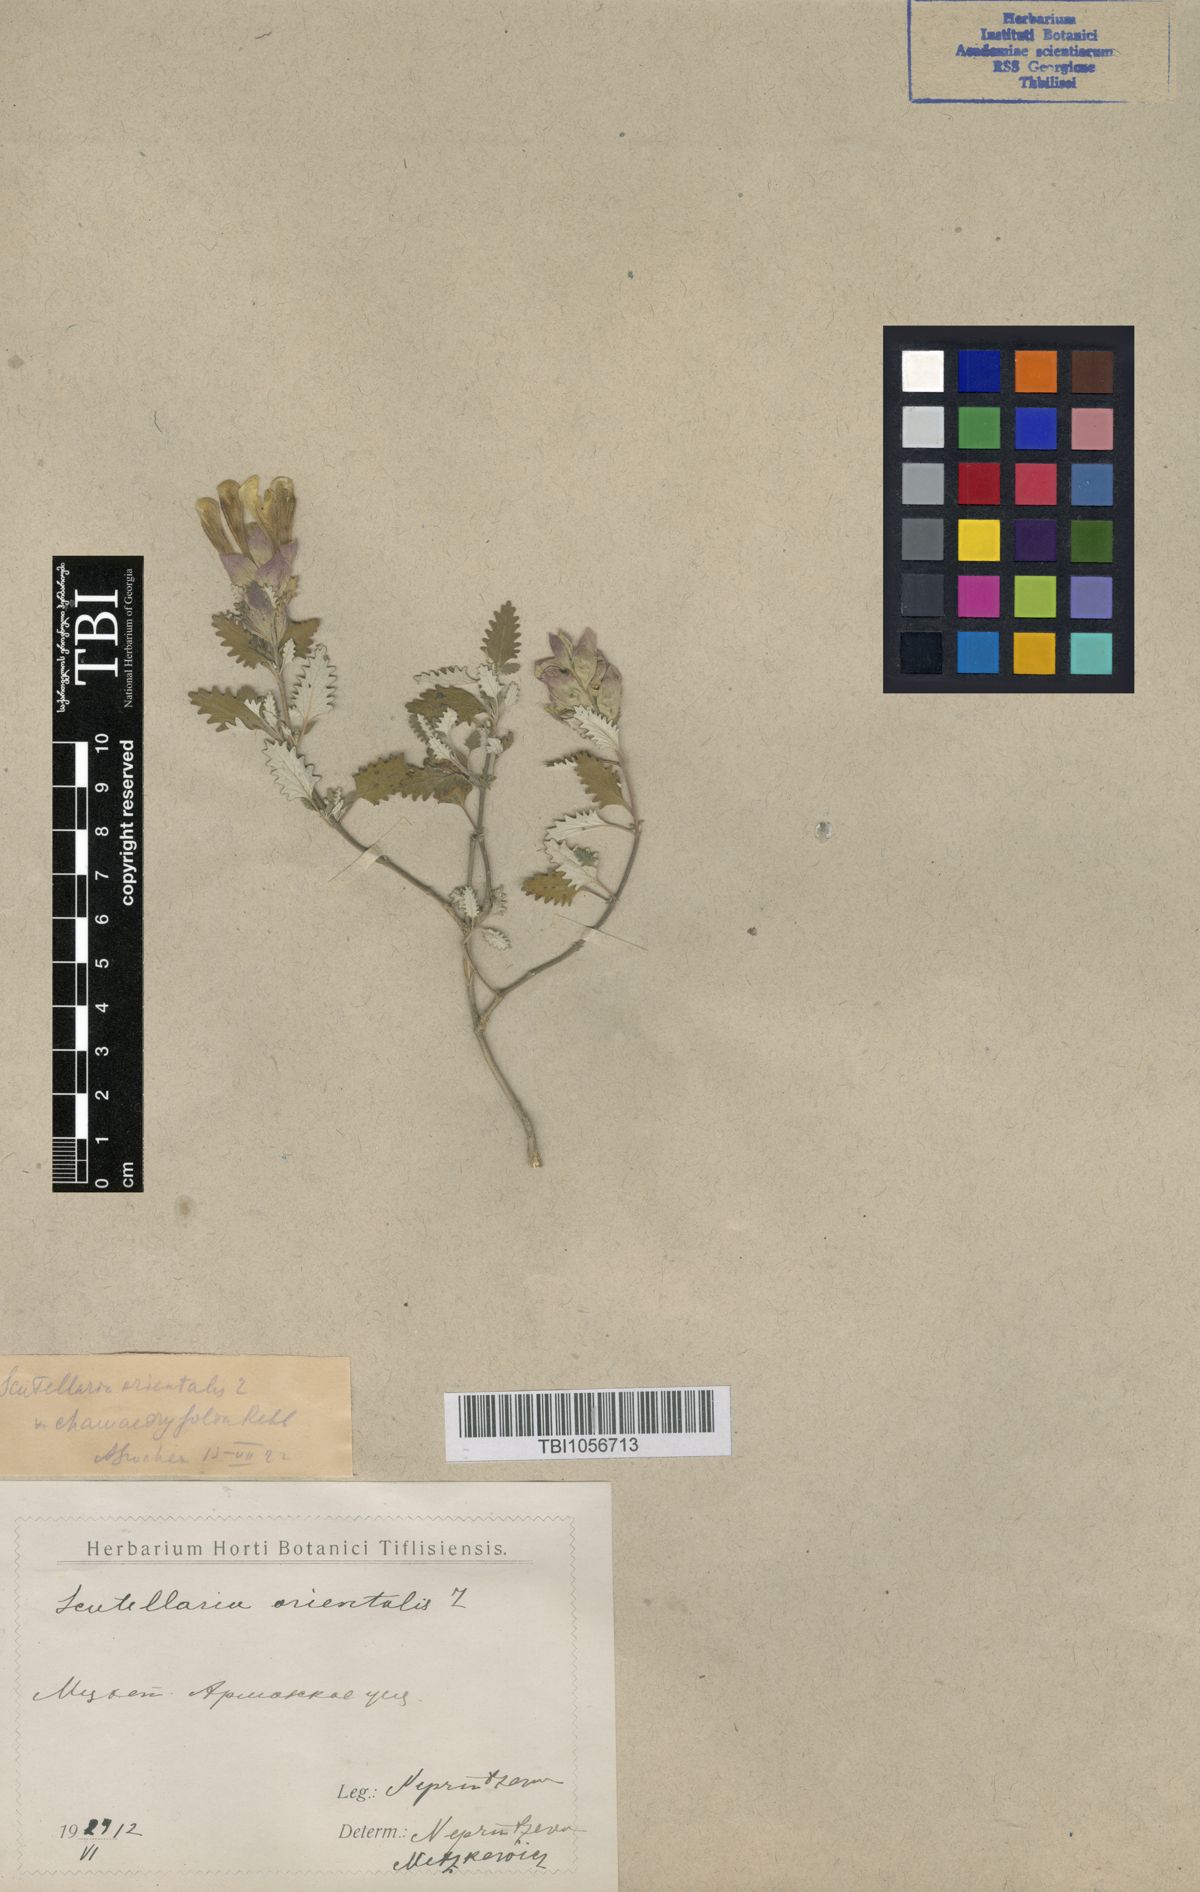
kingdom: Plantae
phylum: Tracheophyta
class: Magnoliopsida
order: Lamiales
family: Lamiaceae
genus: Scutellaria
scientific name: Scutellaria orientalis
